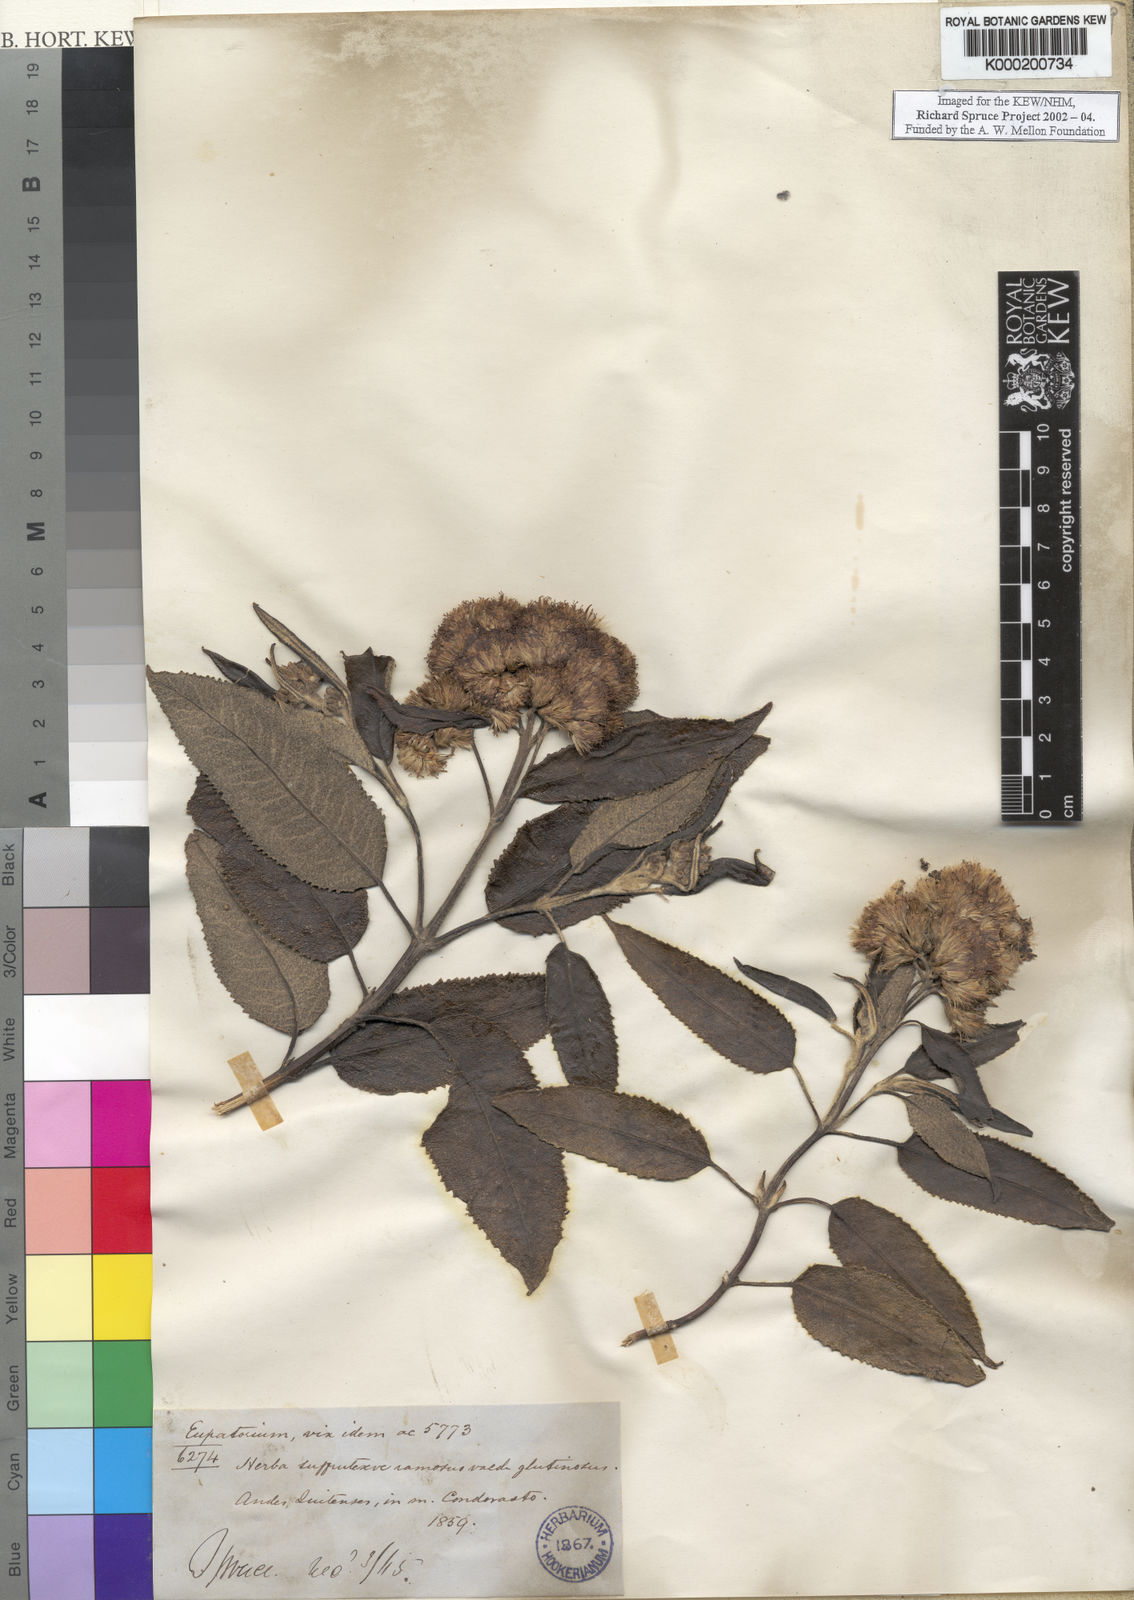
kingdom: Plantae
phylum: Tracheophyta
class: Magnoliopsida
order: Asterales
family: Asteraceae
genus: Aristeguietia
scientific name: Aristeguietia persicifolia
